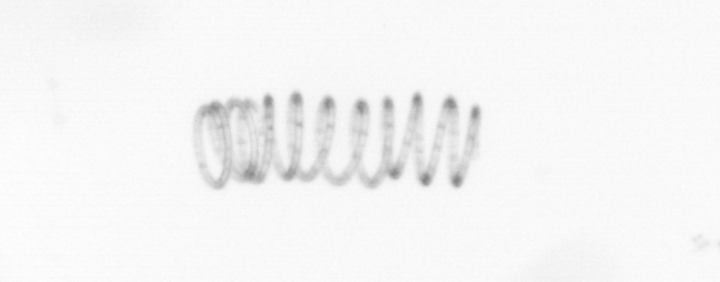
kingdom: Chromista
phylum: Ochrophyta
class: Bacillariophyceae
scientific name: Bacillariophyceae
